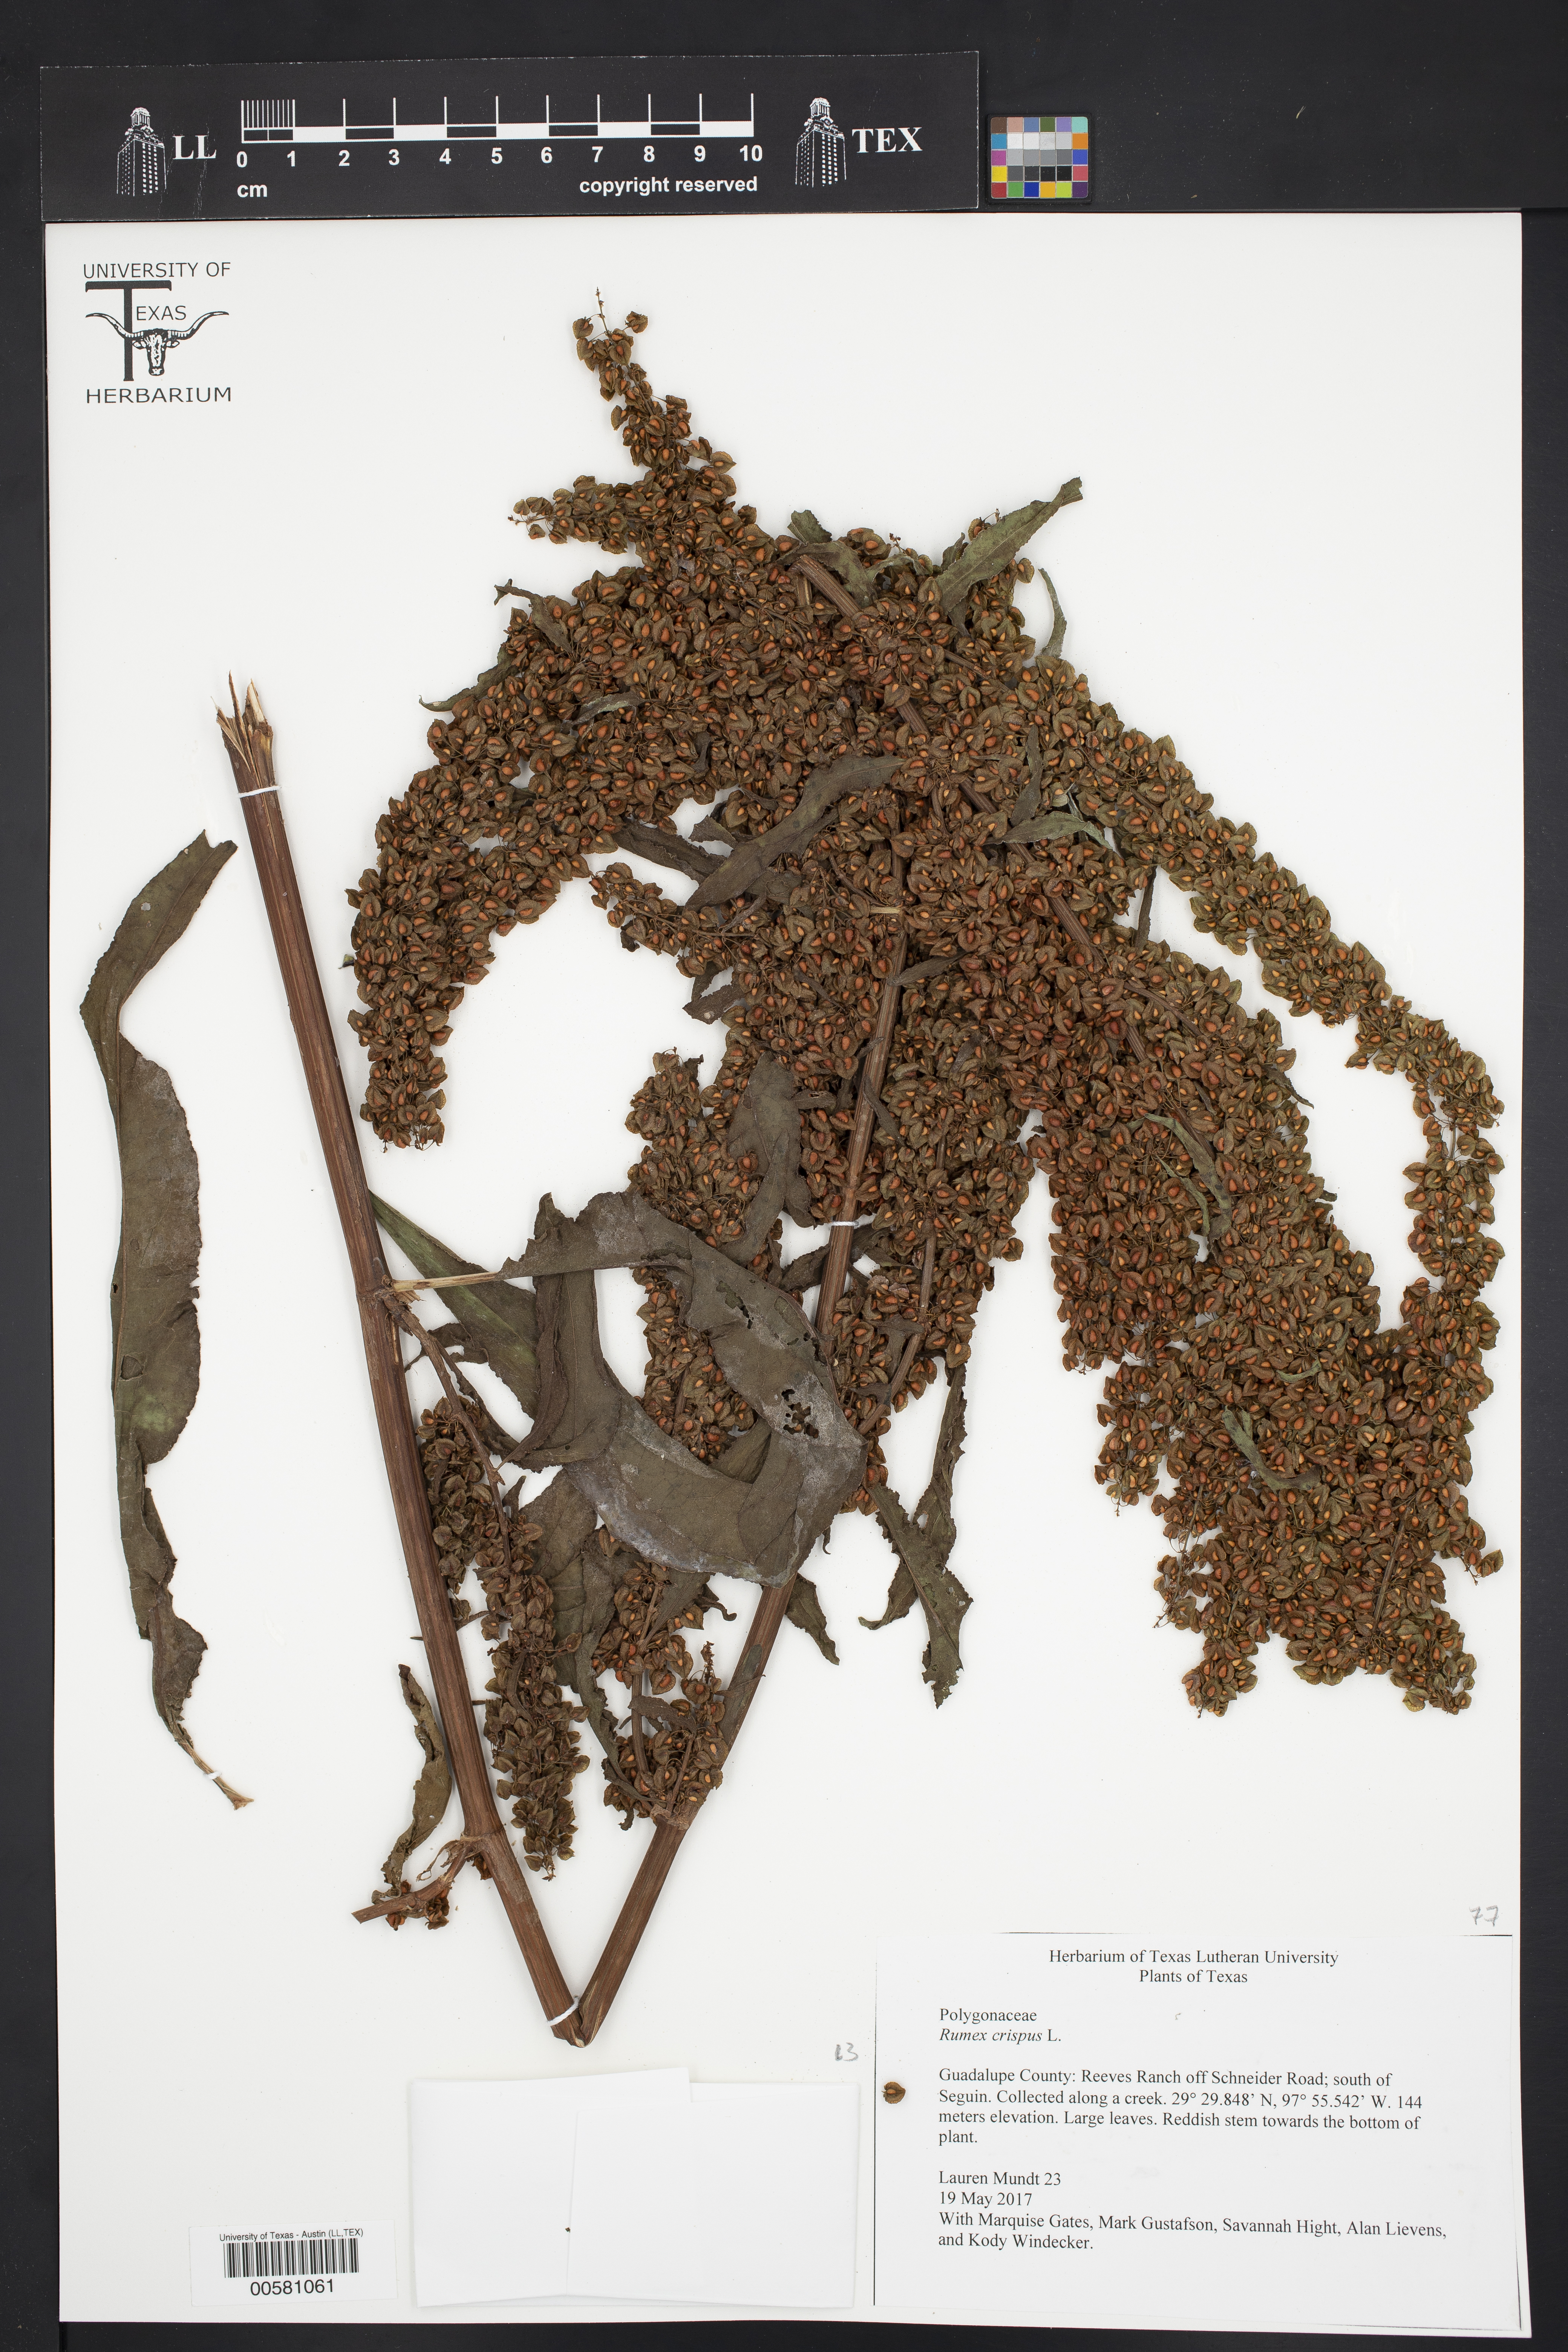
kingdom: Plantae
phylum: Tracheophyta
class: Magnoliopsida
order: Caryophyllales
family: Polygonaceae
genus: Rumex
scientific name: Rumex crispus
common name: Curled dock
